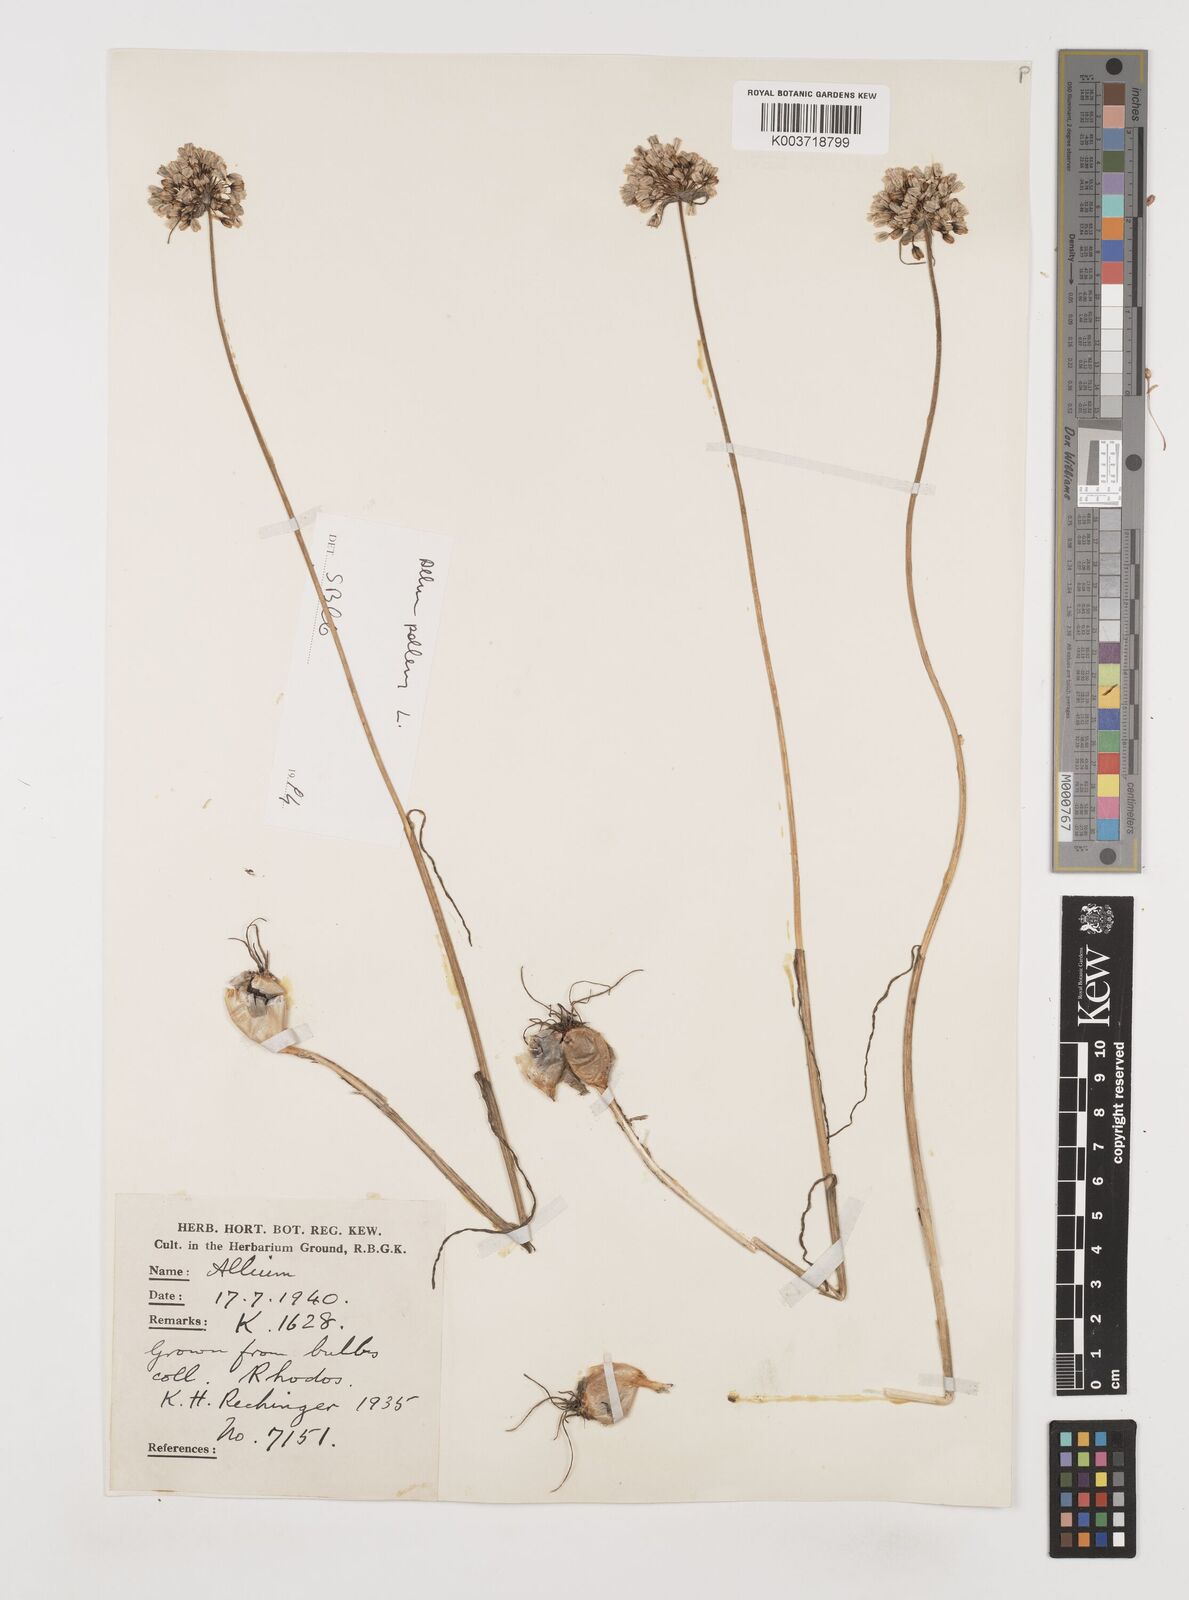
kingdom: Plantae
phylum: Tracheophyta
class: Liliopsida
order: Asparagales
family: Amaryllidaceae
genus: Allium
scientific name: Allium paniculatum
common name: Pale garlic
